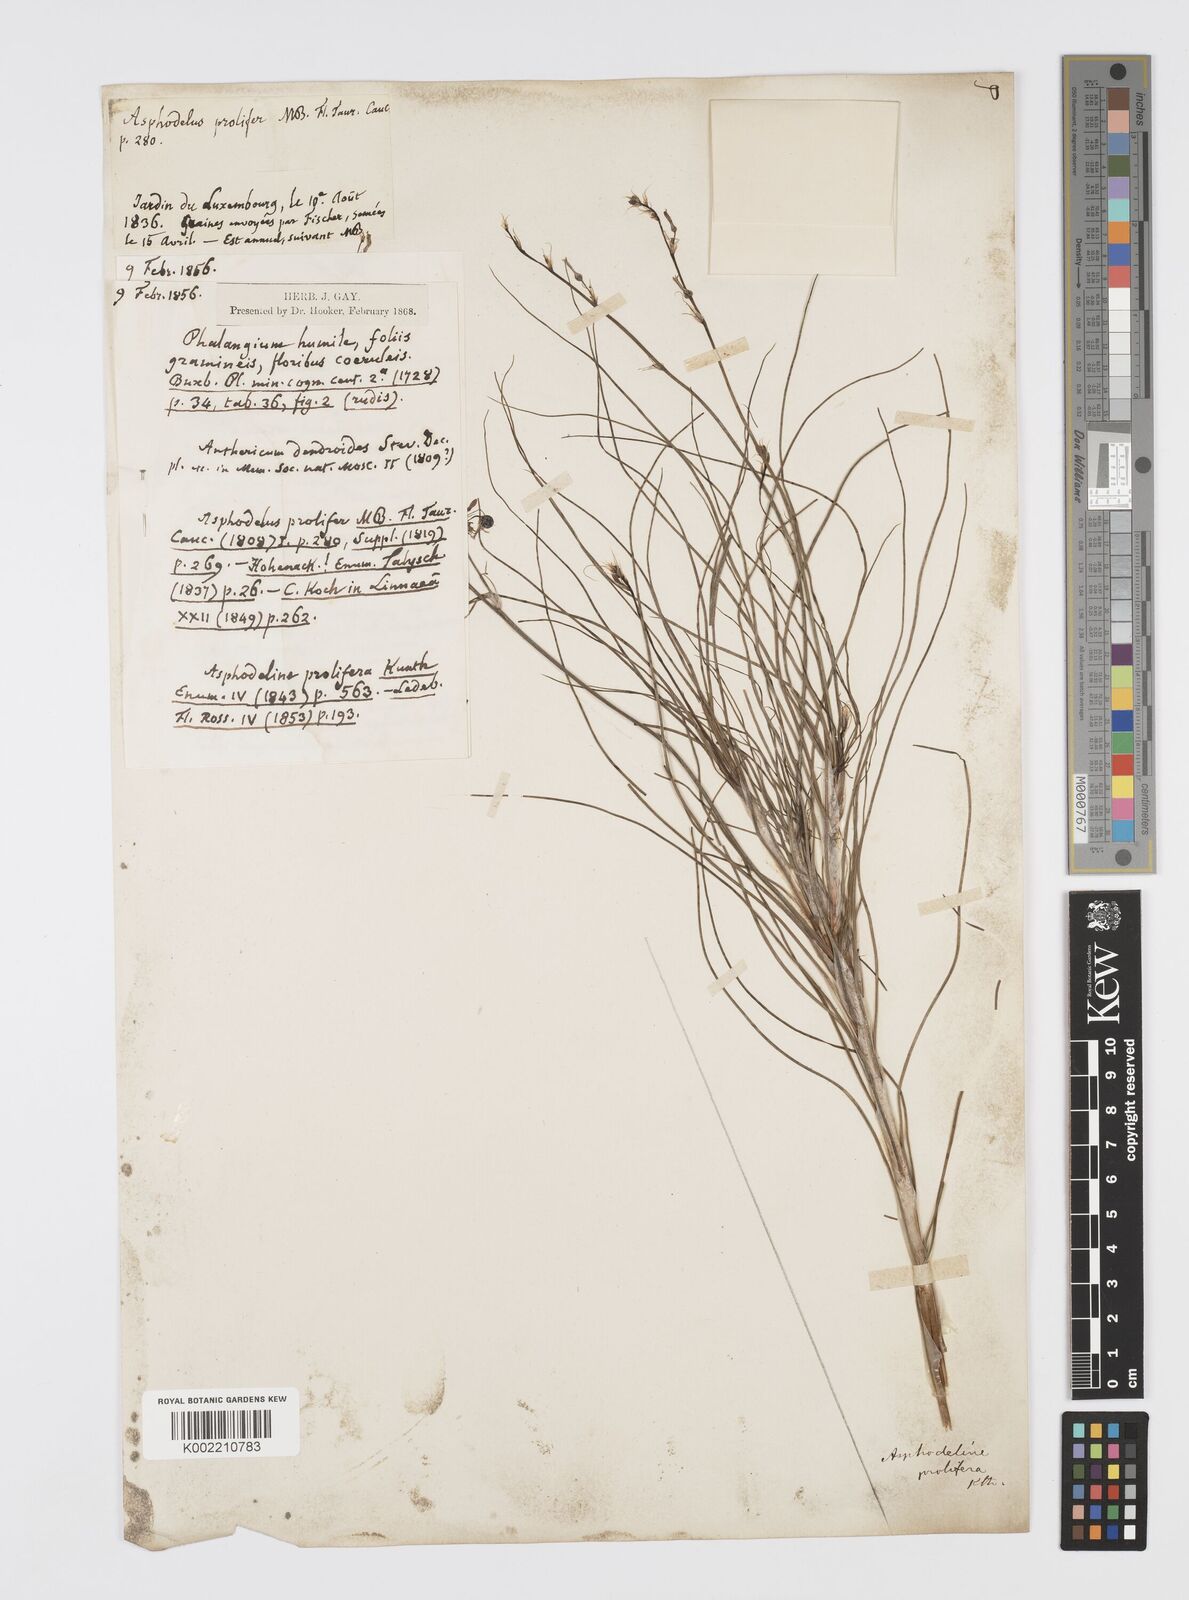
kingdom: Plantae
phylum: Tracheophyta
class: Liliopsida
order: Asparagales
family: Asphodelaceae
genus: Asphodeline
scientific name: Asphodeline prolifera
